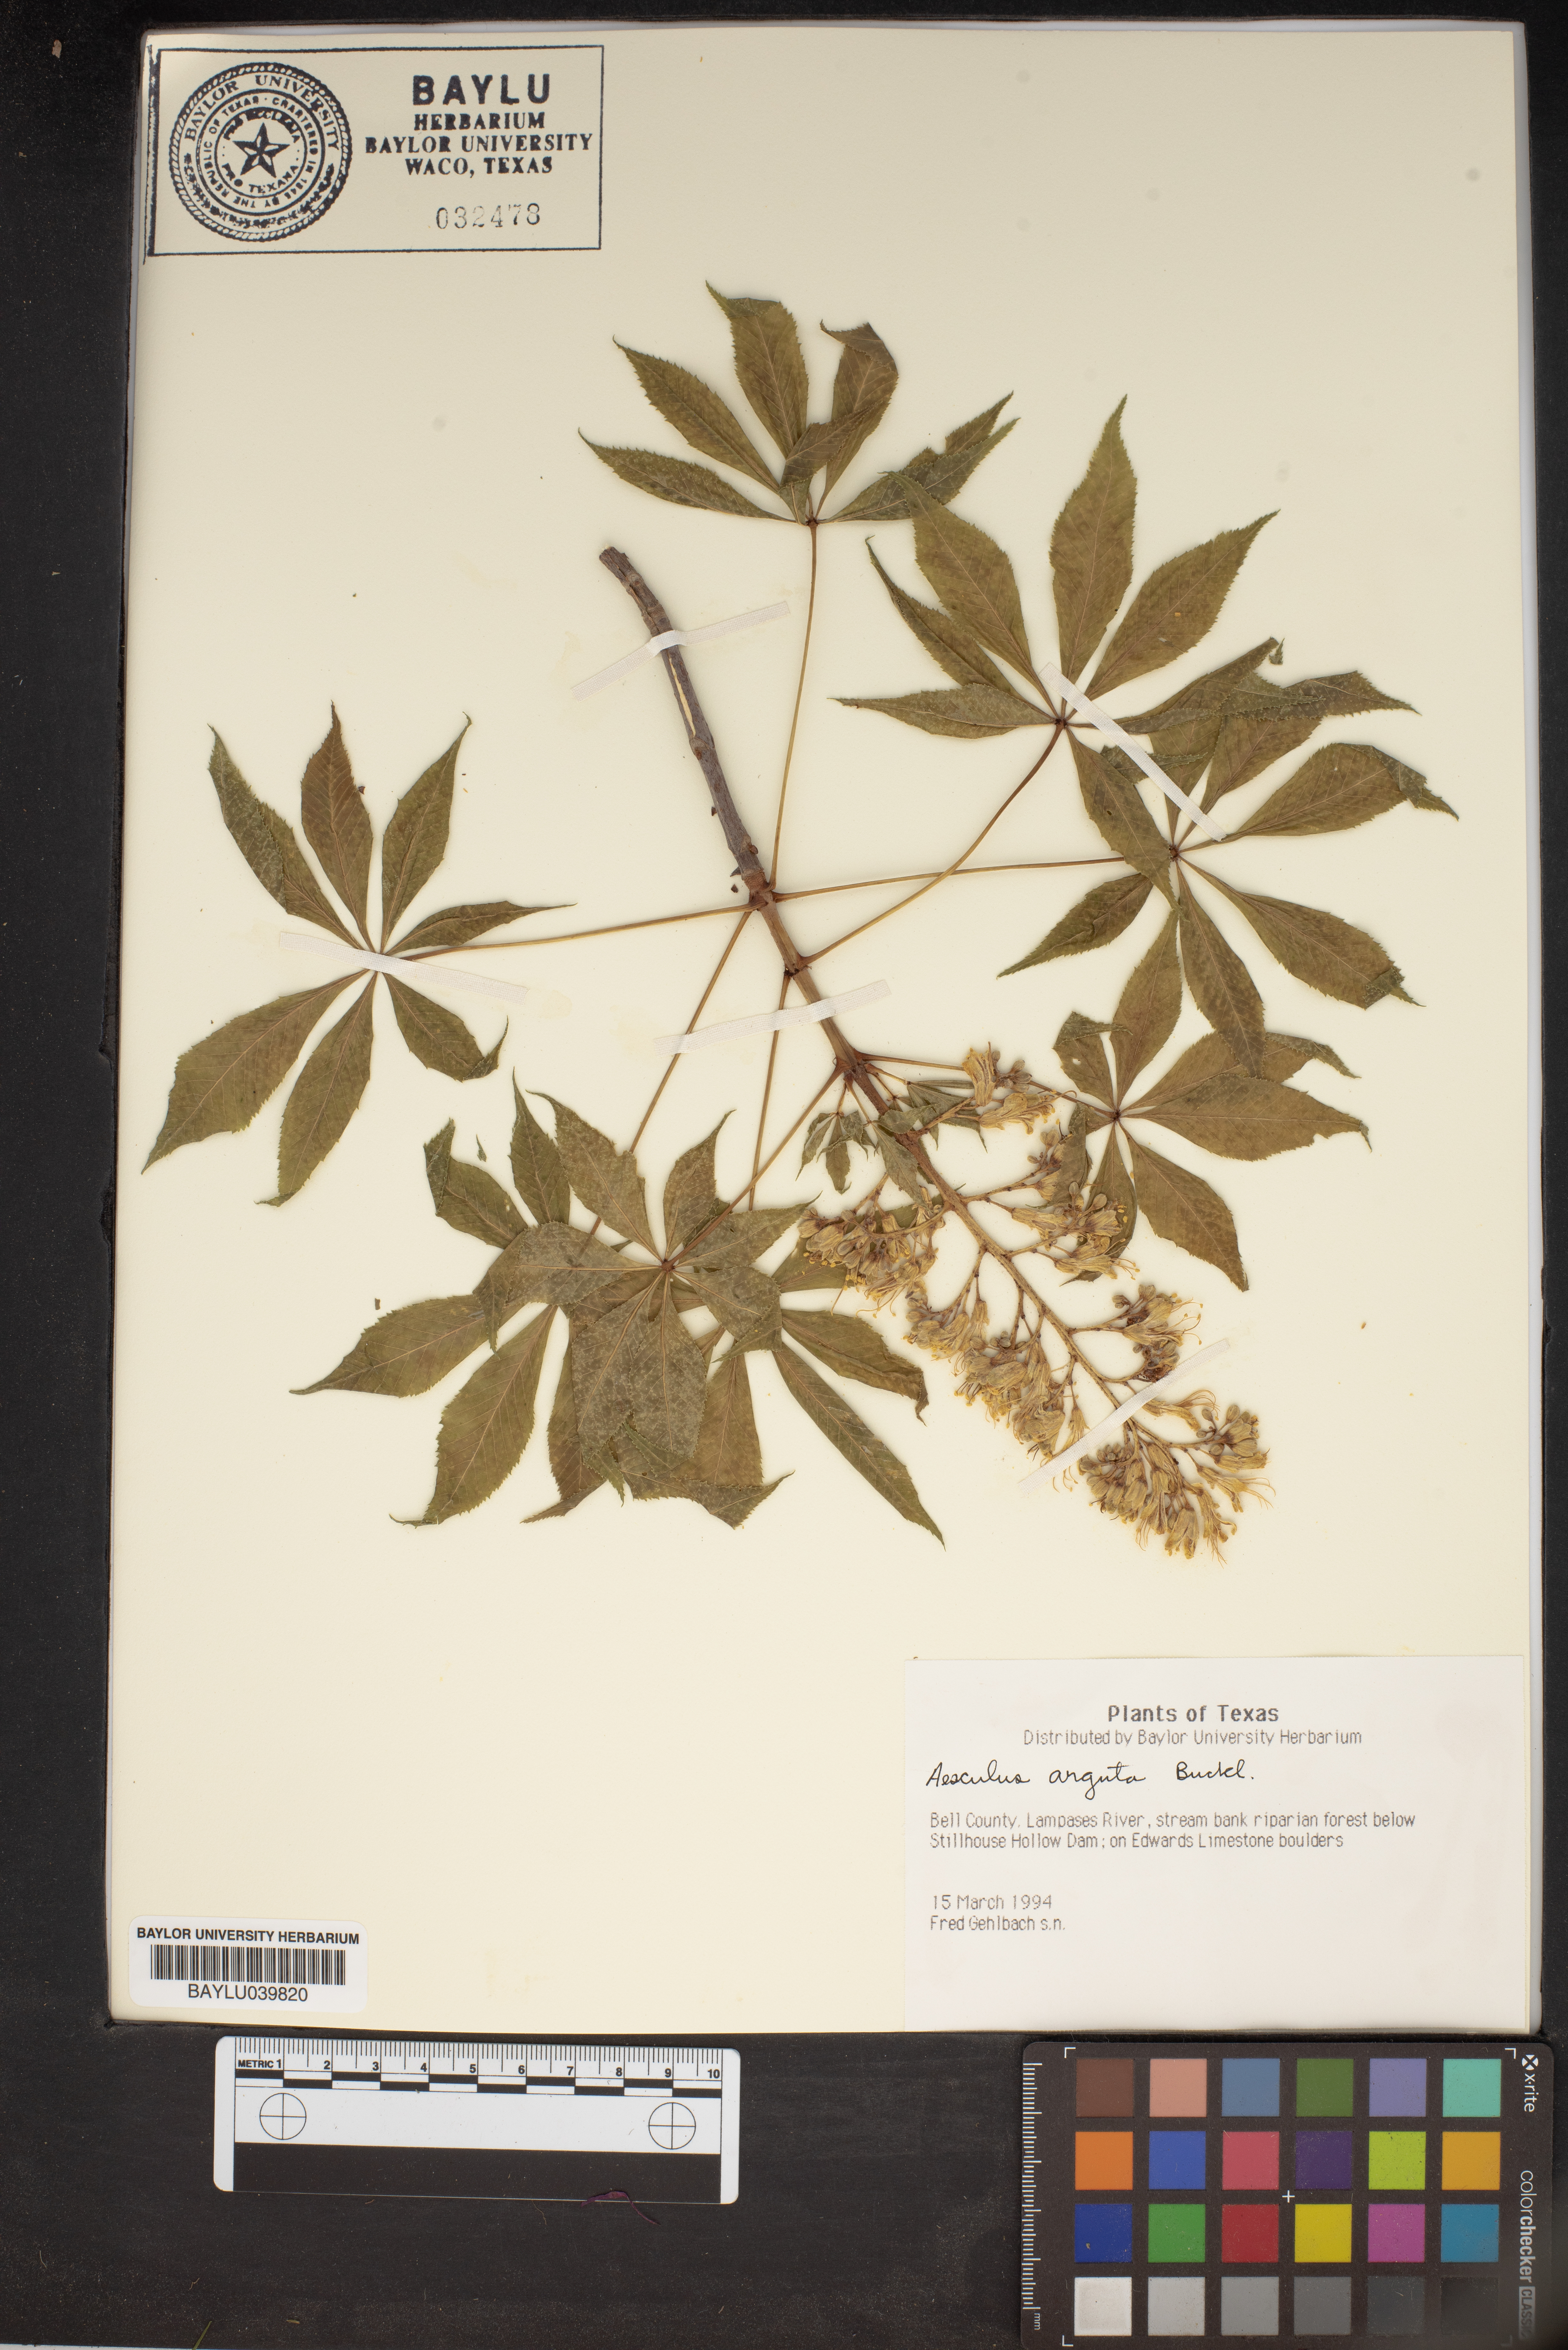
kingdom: Plantae
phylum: Tracheophyta
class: Magnoliopsida
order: Sapindales
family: Sapindaceae
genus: Aesculus
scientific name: Aesculus glabra
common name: Ohio buckeye
